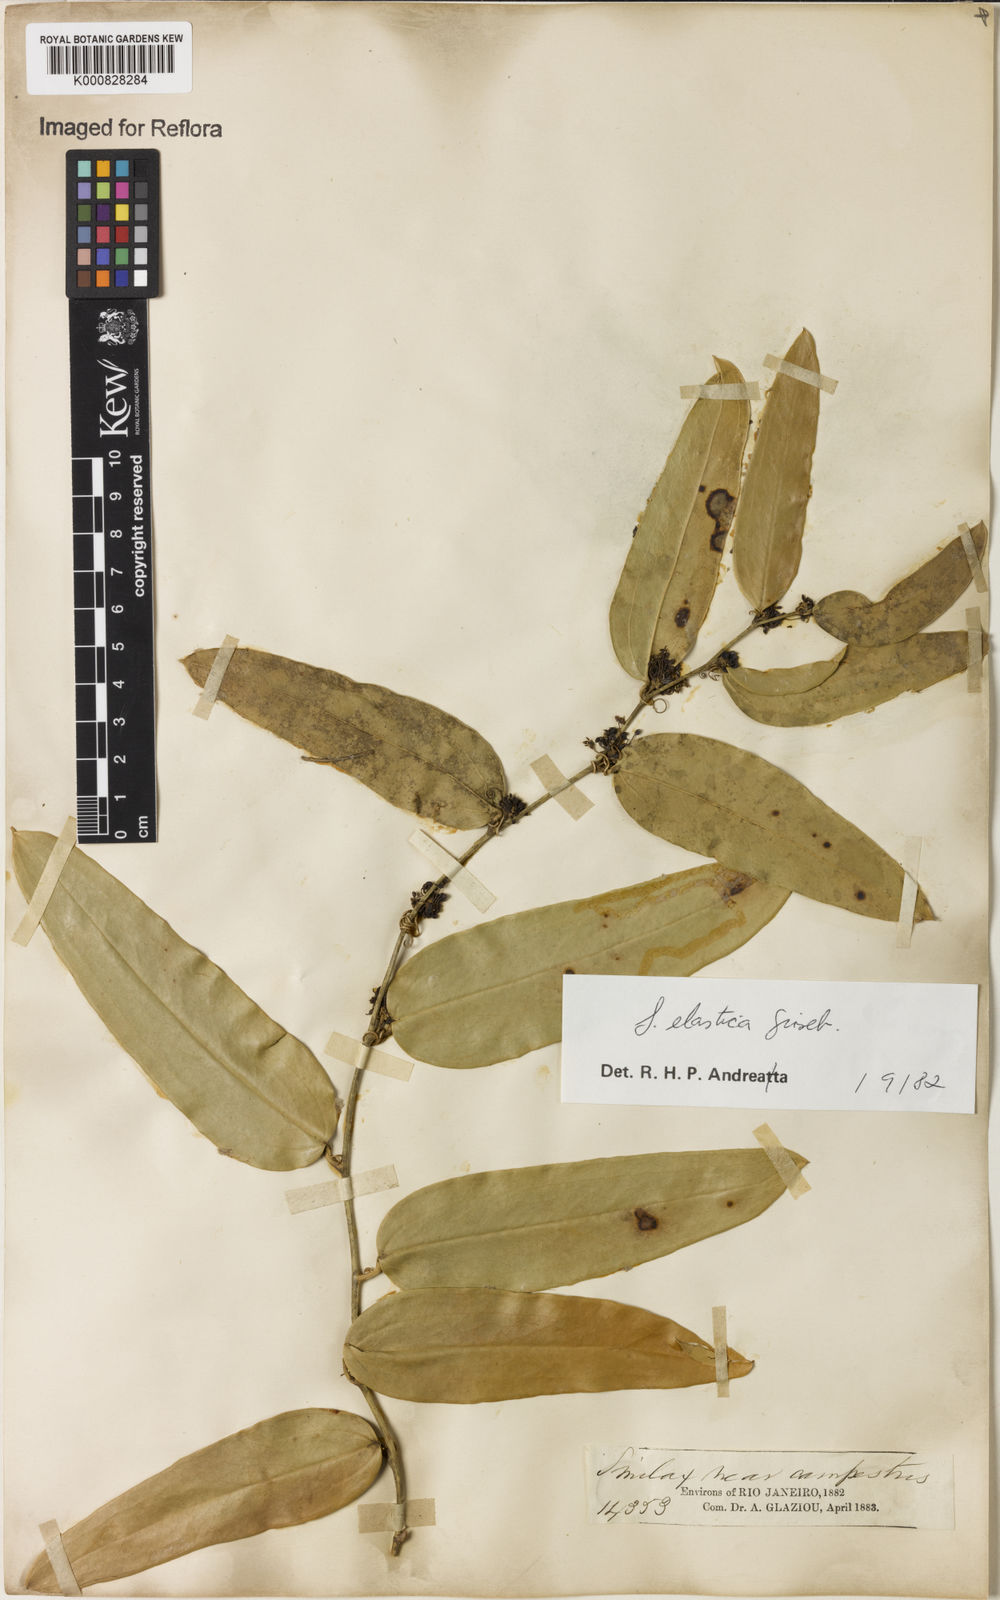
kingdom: Plantae
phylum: Tracheophyta
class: Liliopsida
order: Liliales
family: Smilacaceae
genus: Smilax
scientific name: Smilax elastica
